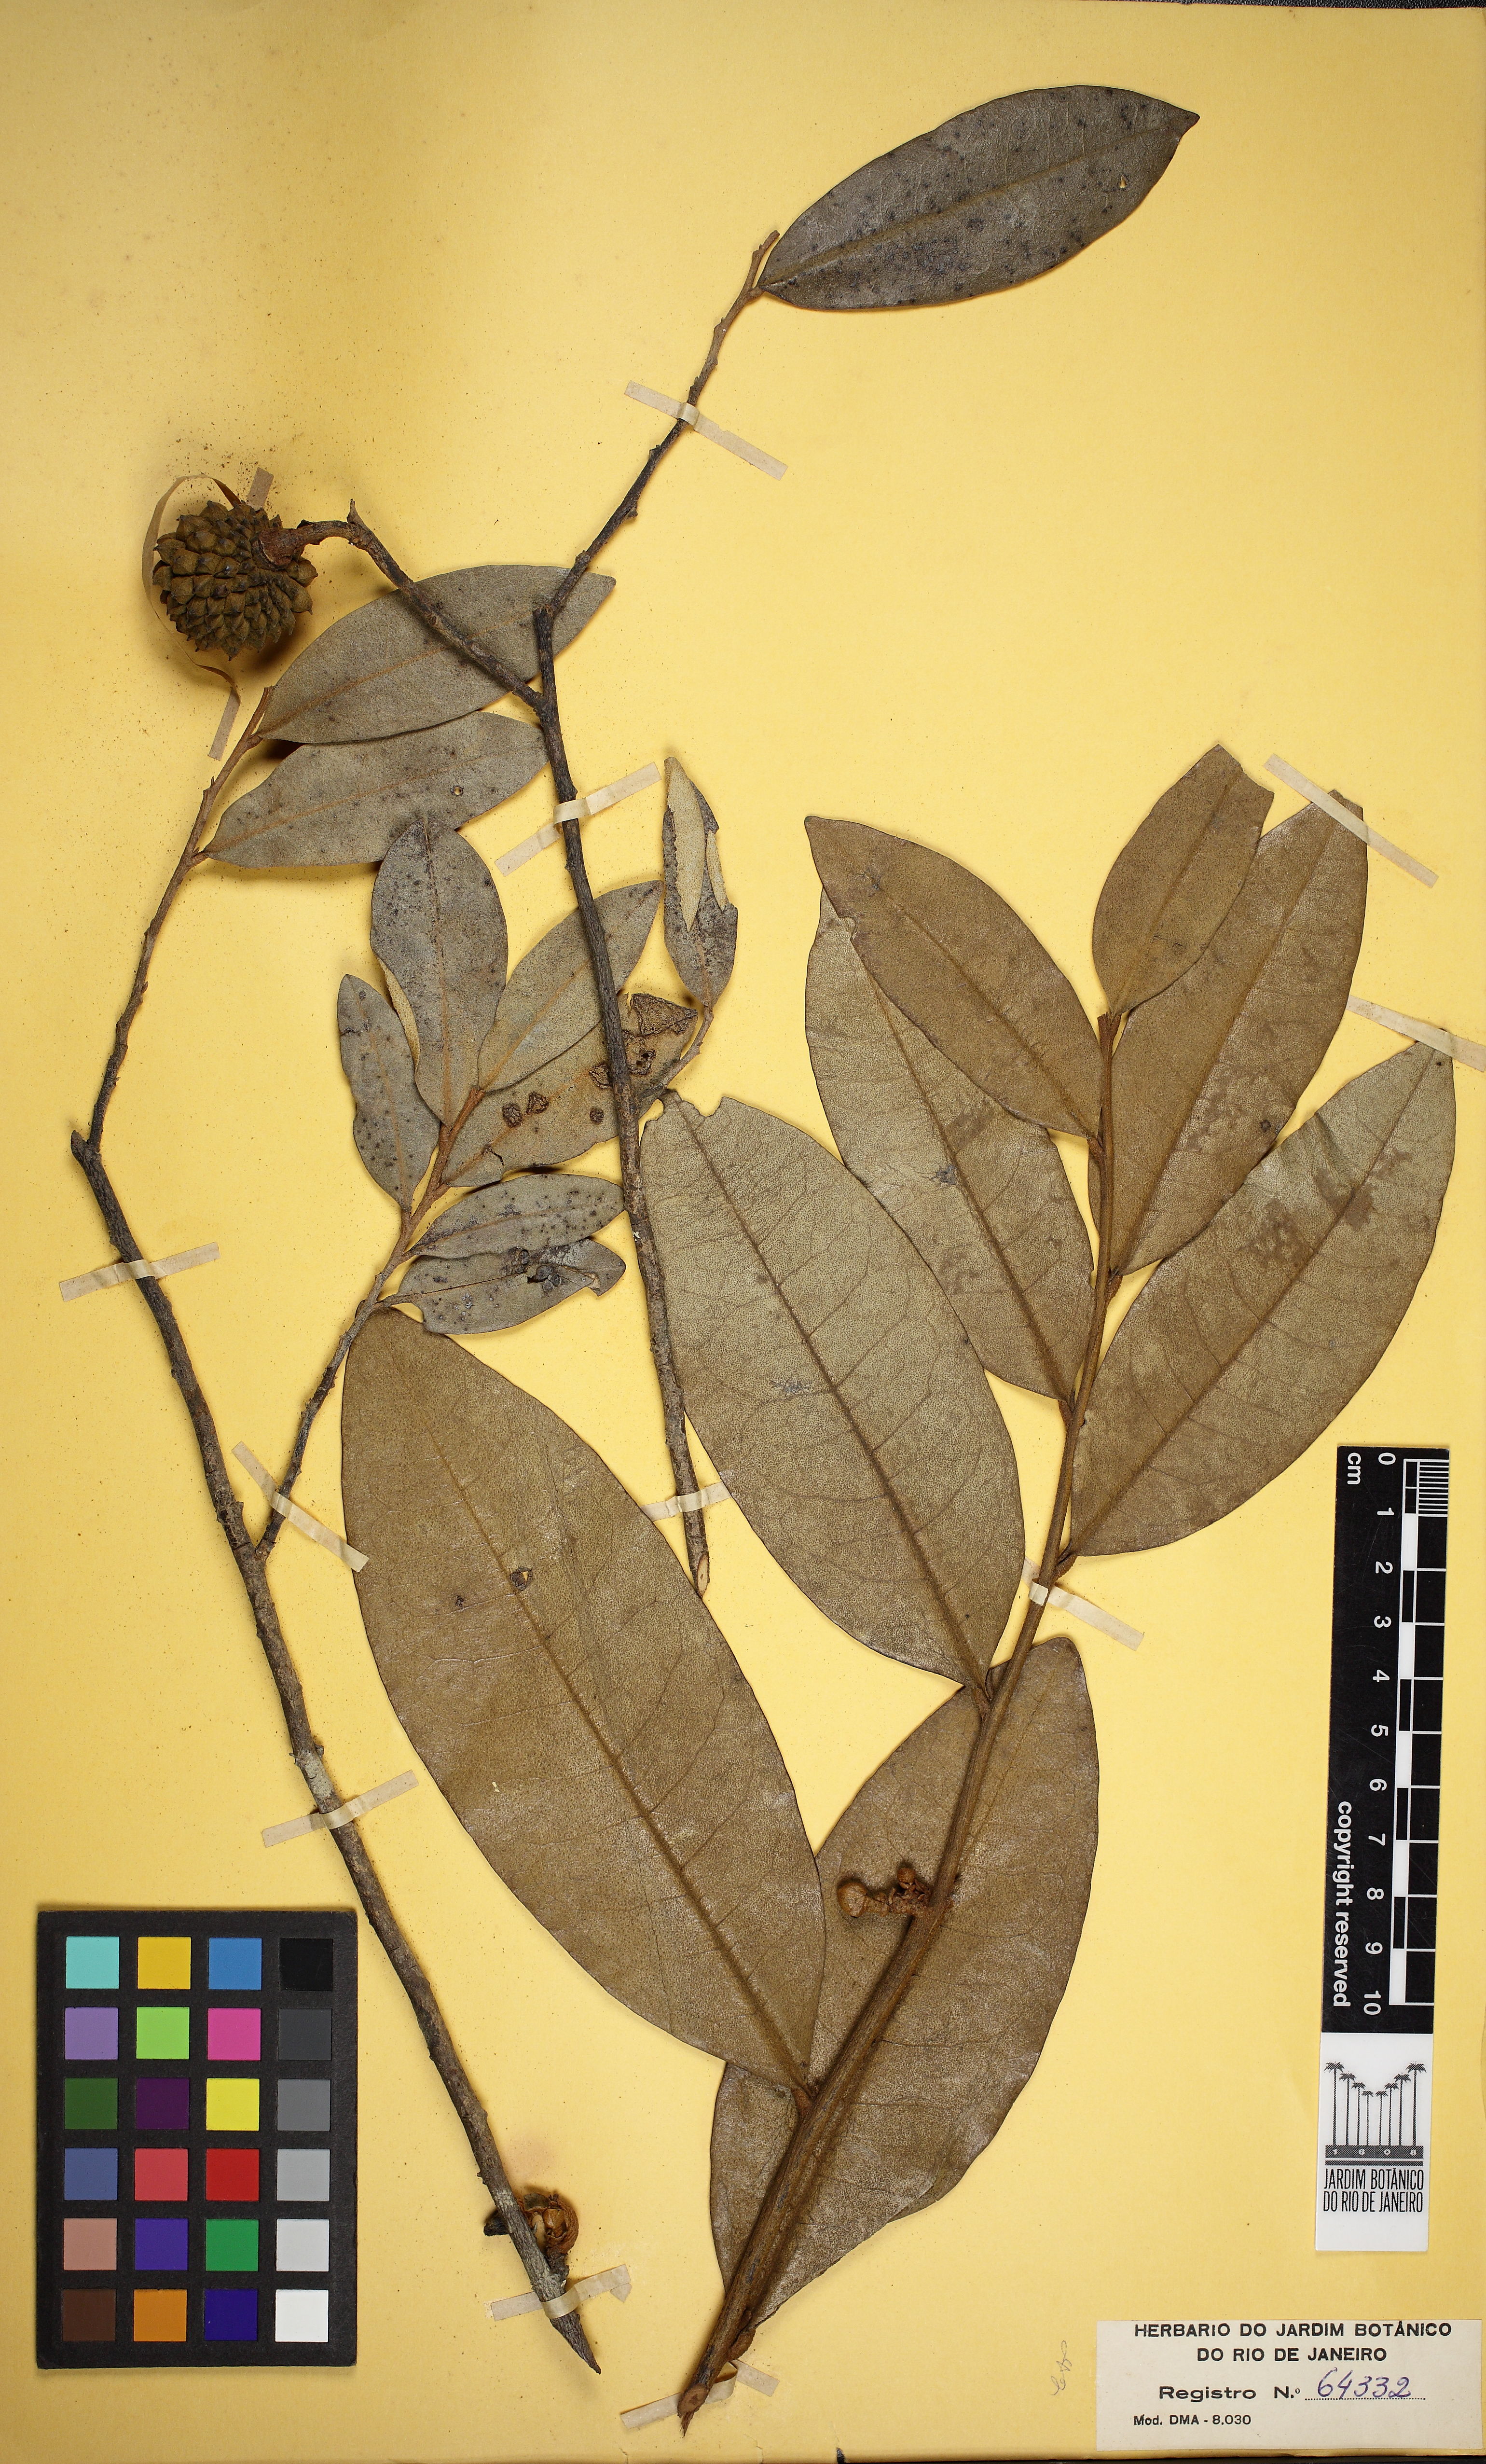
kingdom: Plantae
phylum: Tracheophyta
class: Magnoliopsida
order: Magnoliales
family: Annonaceae
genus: Duguetia
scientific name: Duguetia furfuracea
